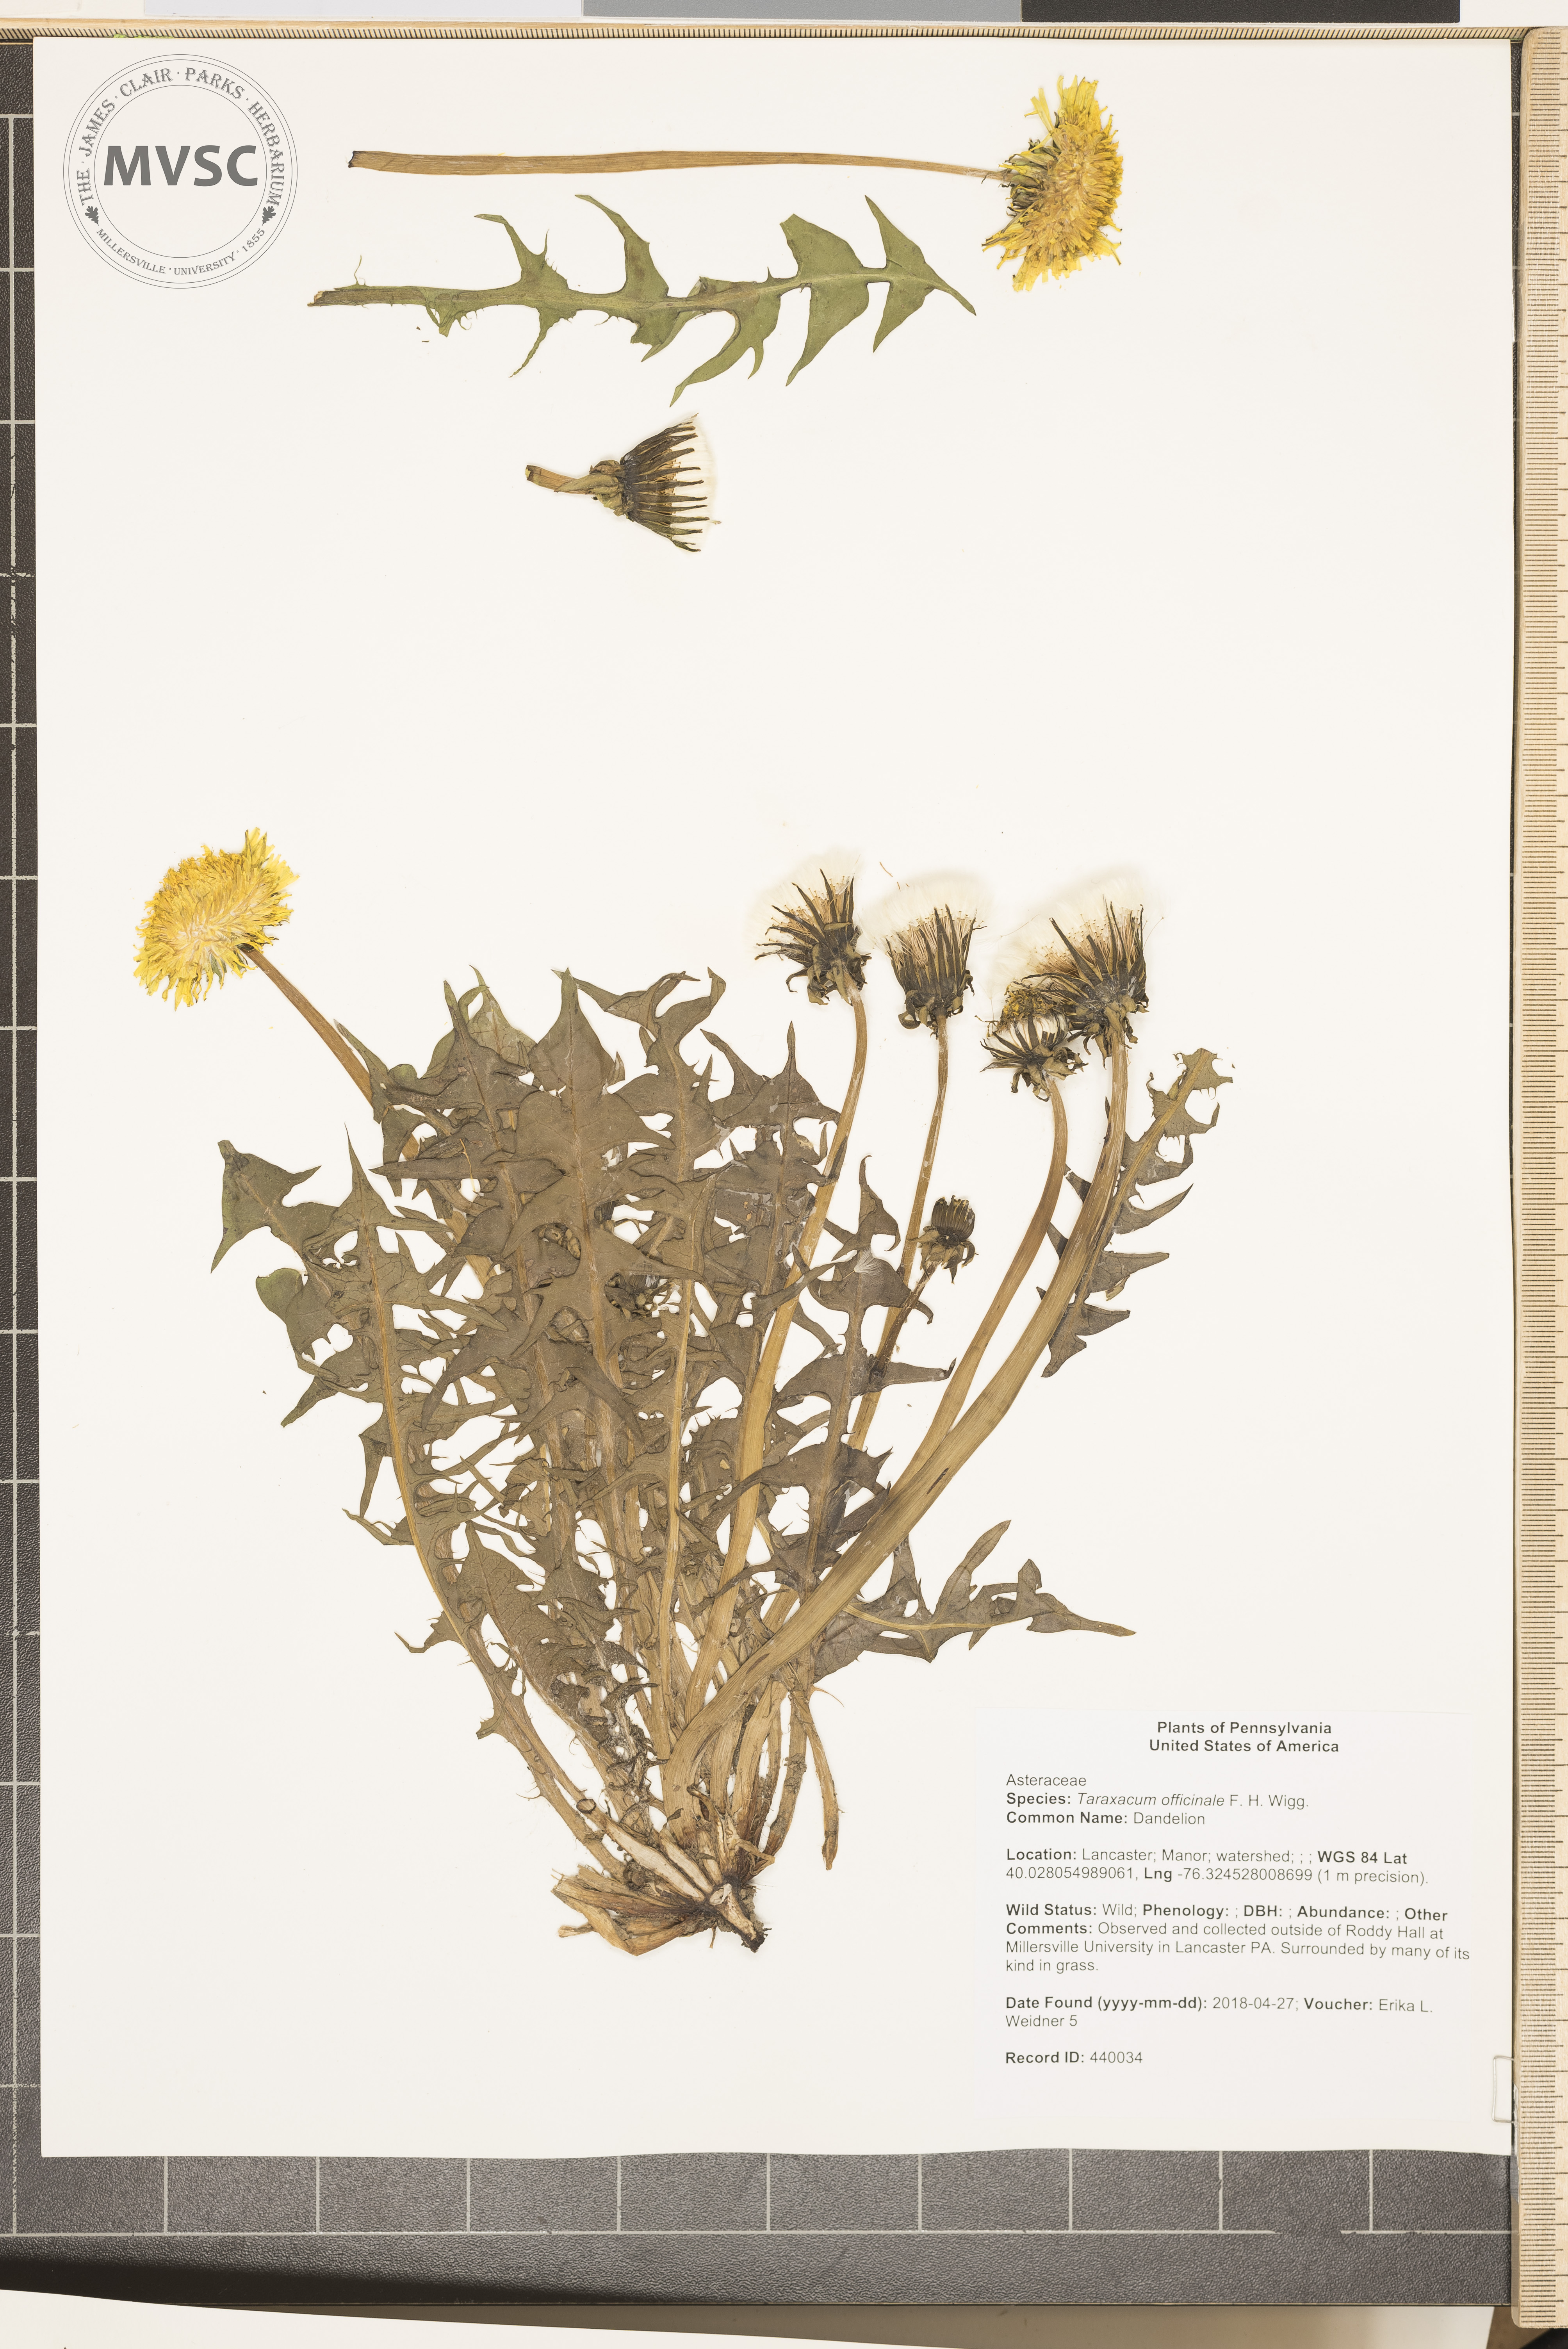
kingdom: Plantae
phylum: Tracheophyta
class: Magnoliopsida
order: Asterales
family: Asteraceae
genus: Taraxacum
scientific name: Taraxacum officinale
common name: Dandelion
